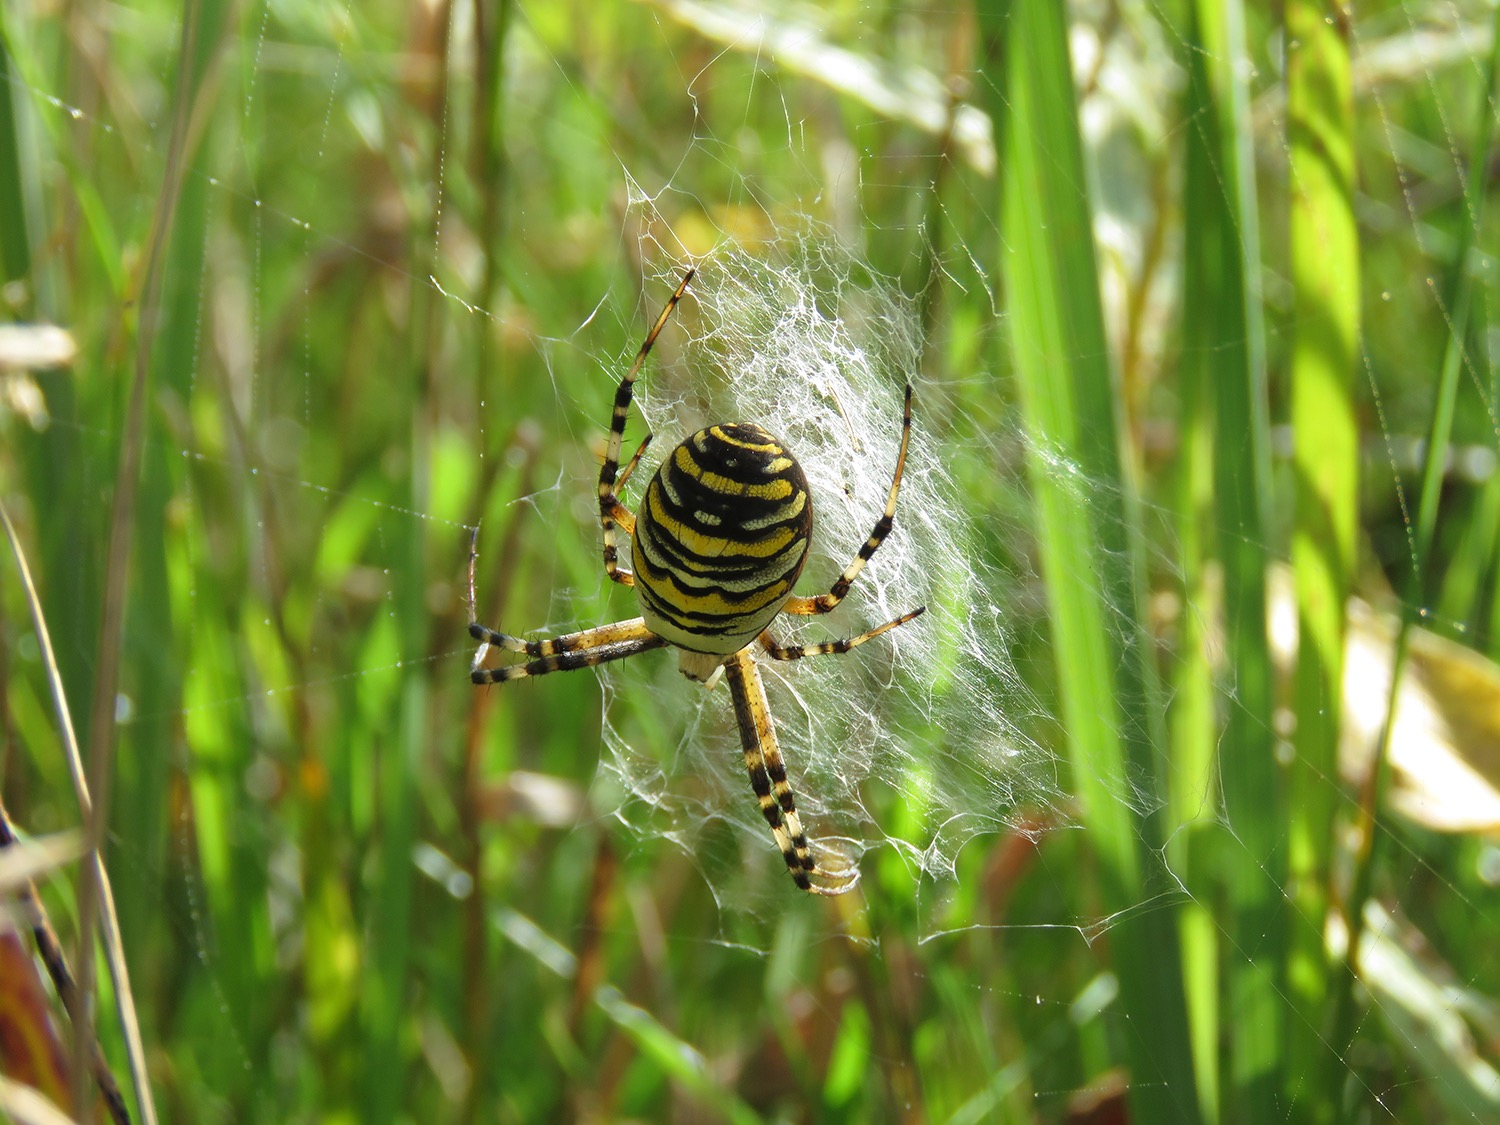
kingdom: Animalia
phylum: Arthropoda
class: Arachnida
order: Araneae
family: Araneidae
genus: Argiope
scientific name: Argiope bruennichi
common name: Hvepseedderkop
